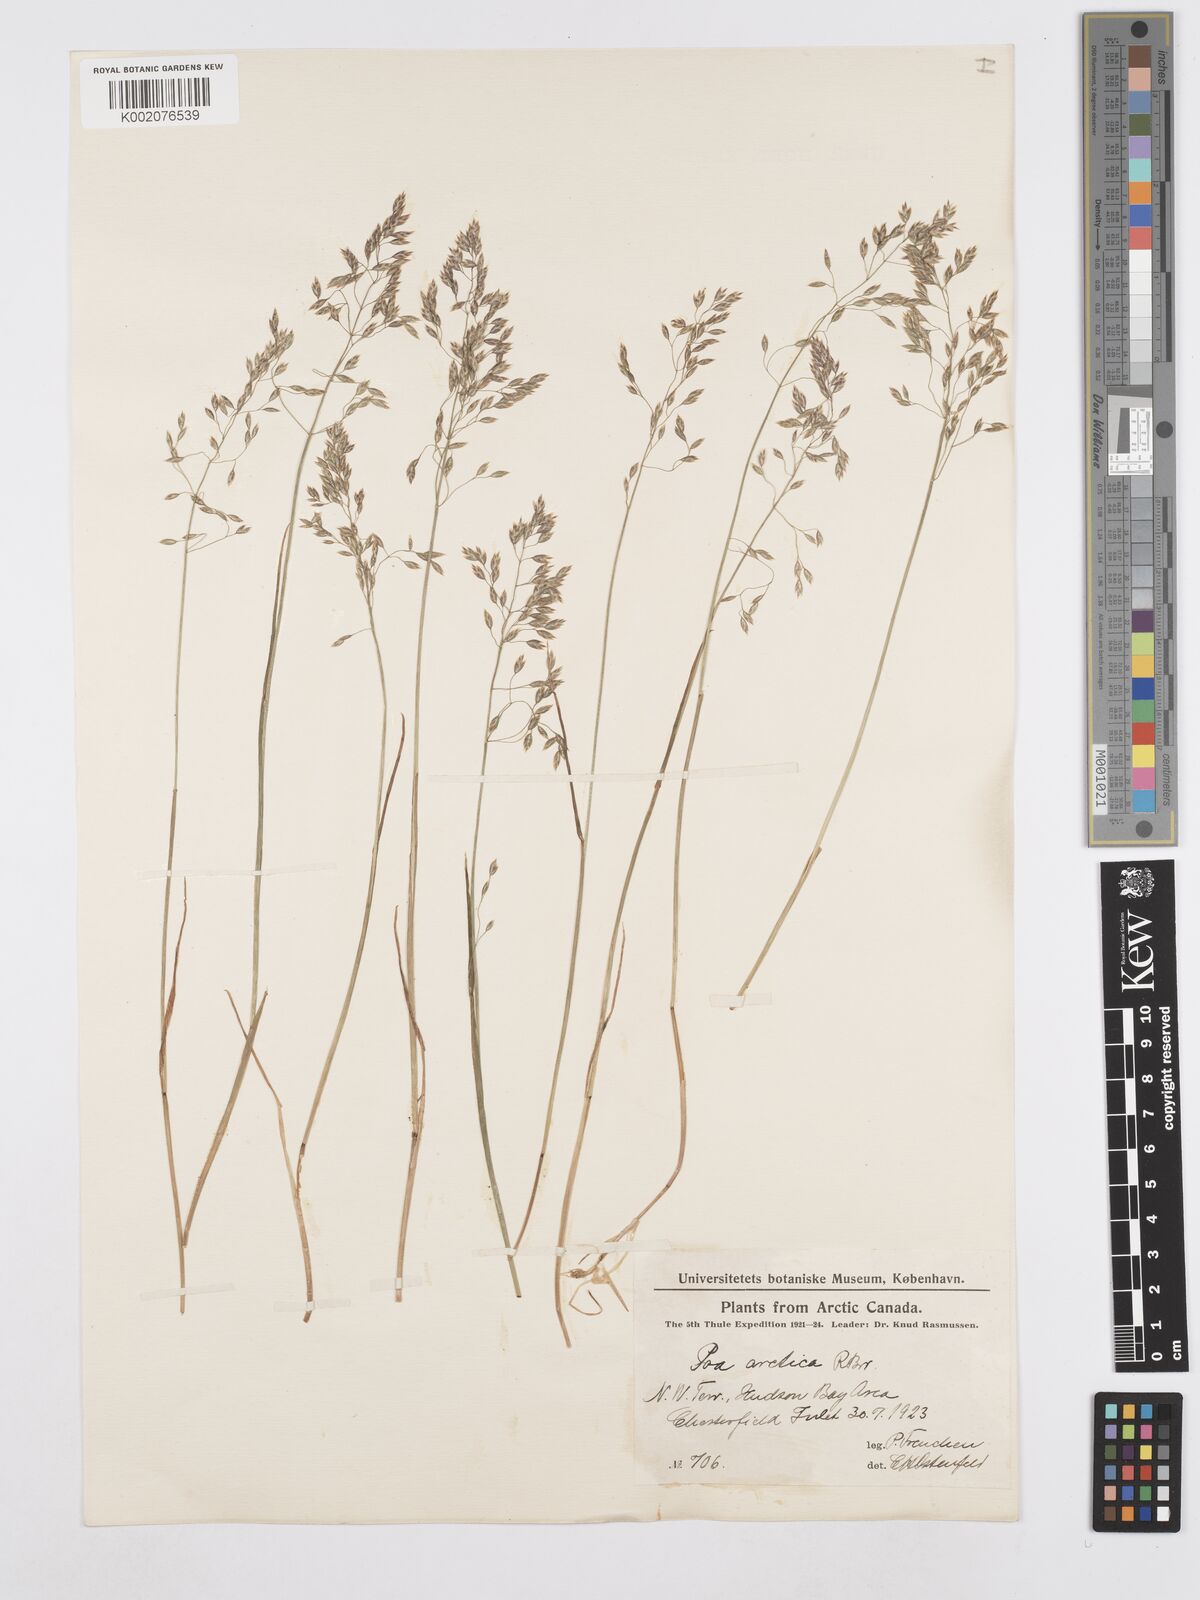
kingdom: Plantae
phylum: Tracheophyta
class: Liliopsida
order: Poales
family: Poaceae
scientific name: Poaceae
